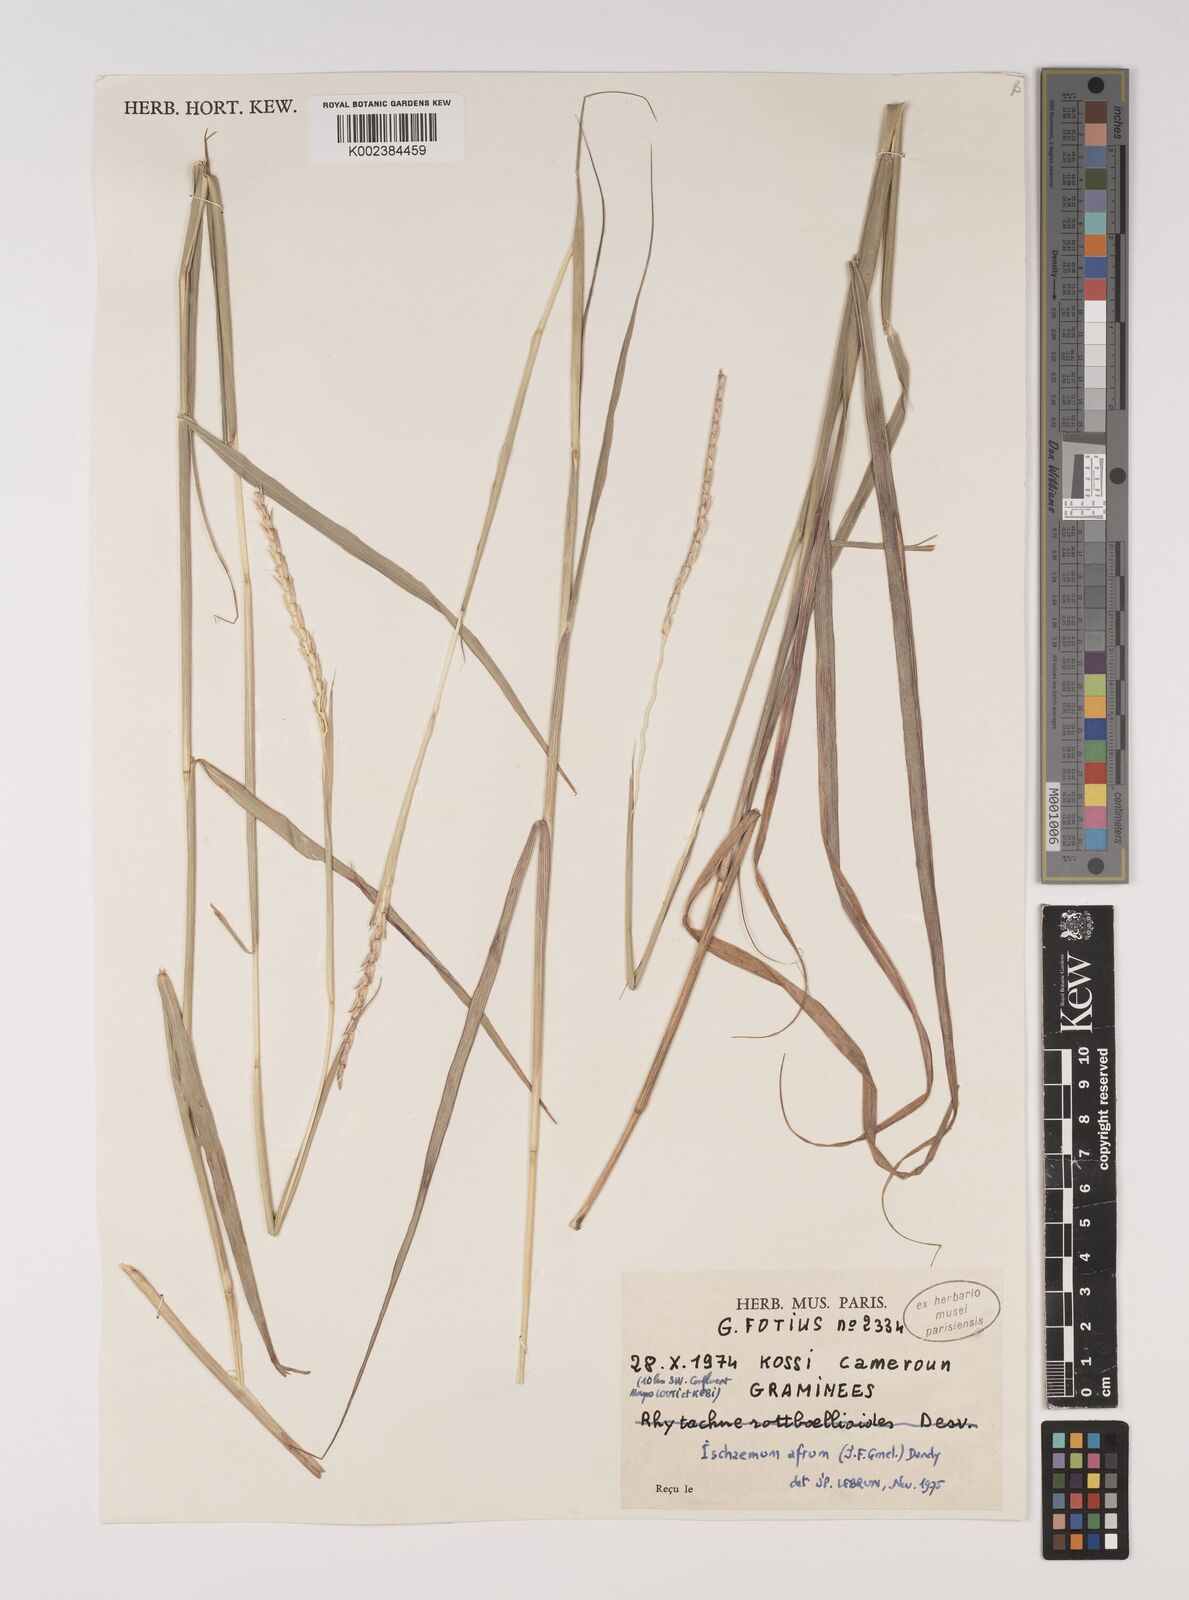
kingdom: Plantae
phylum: Tracheophyta
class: Liliopsida
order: Poales
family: Poaceae
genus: Ischaemum
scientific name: Ischaemum afrum
